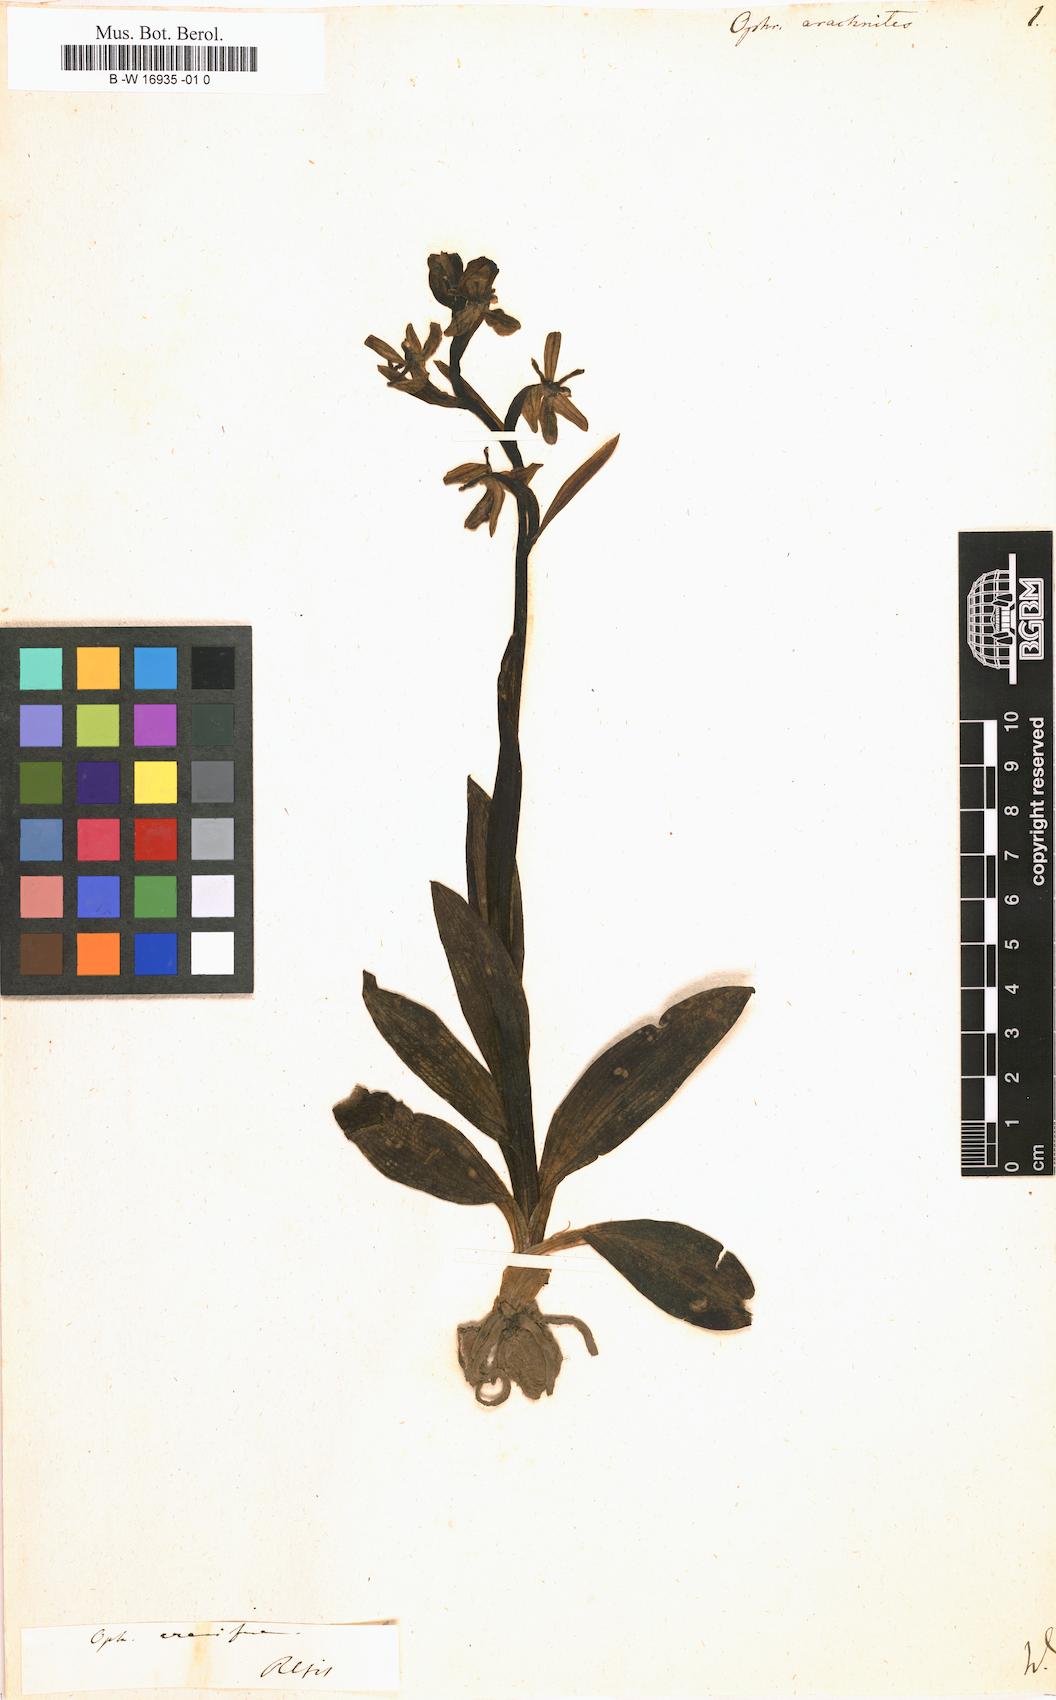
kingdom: Plantae
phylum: Tracheophyta
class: Liliopsida
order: Asparagales
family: Orchidaceae
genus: Ophrys
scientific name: Ophrys holosericea
